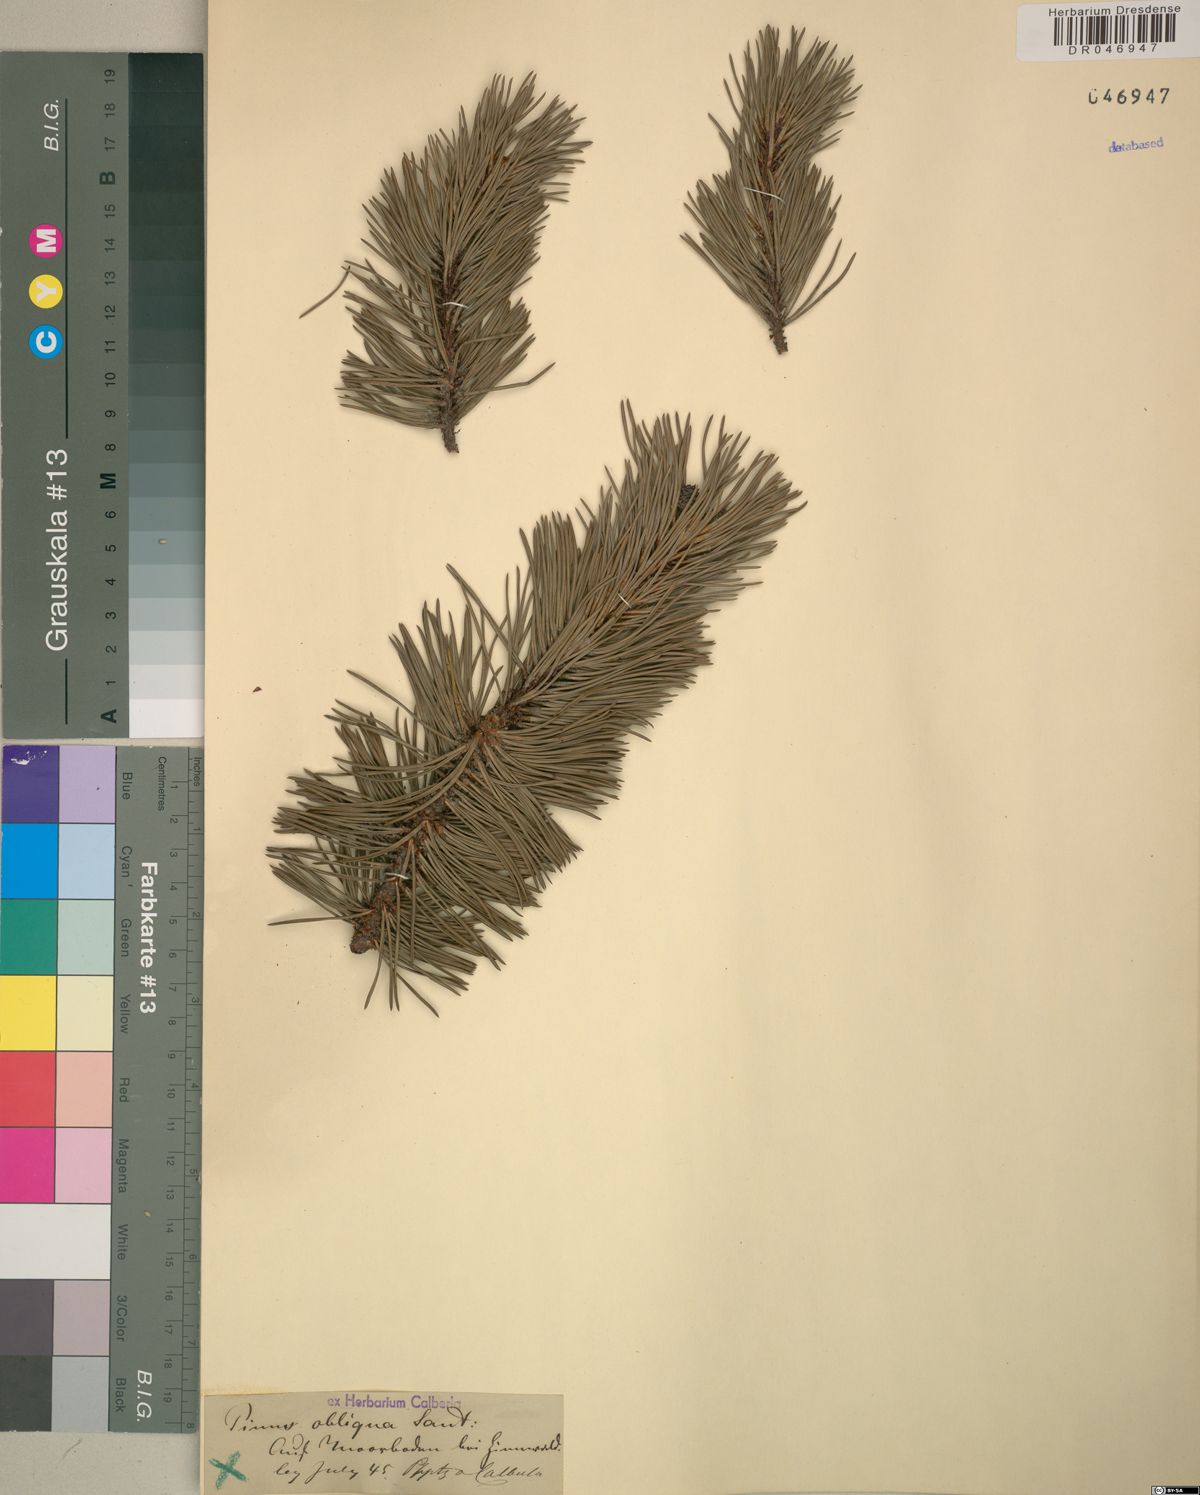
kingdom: Plantae
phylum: Tracheophyta
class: Pinopsida
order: Pinales
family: Pinaceae
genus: Pinus
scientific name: Pinus mugo
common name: Mugo pine
